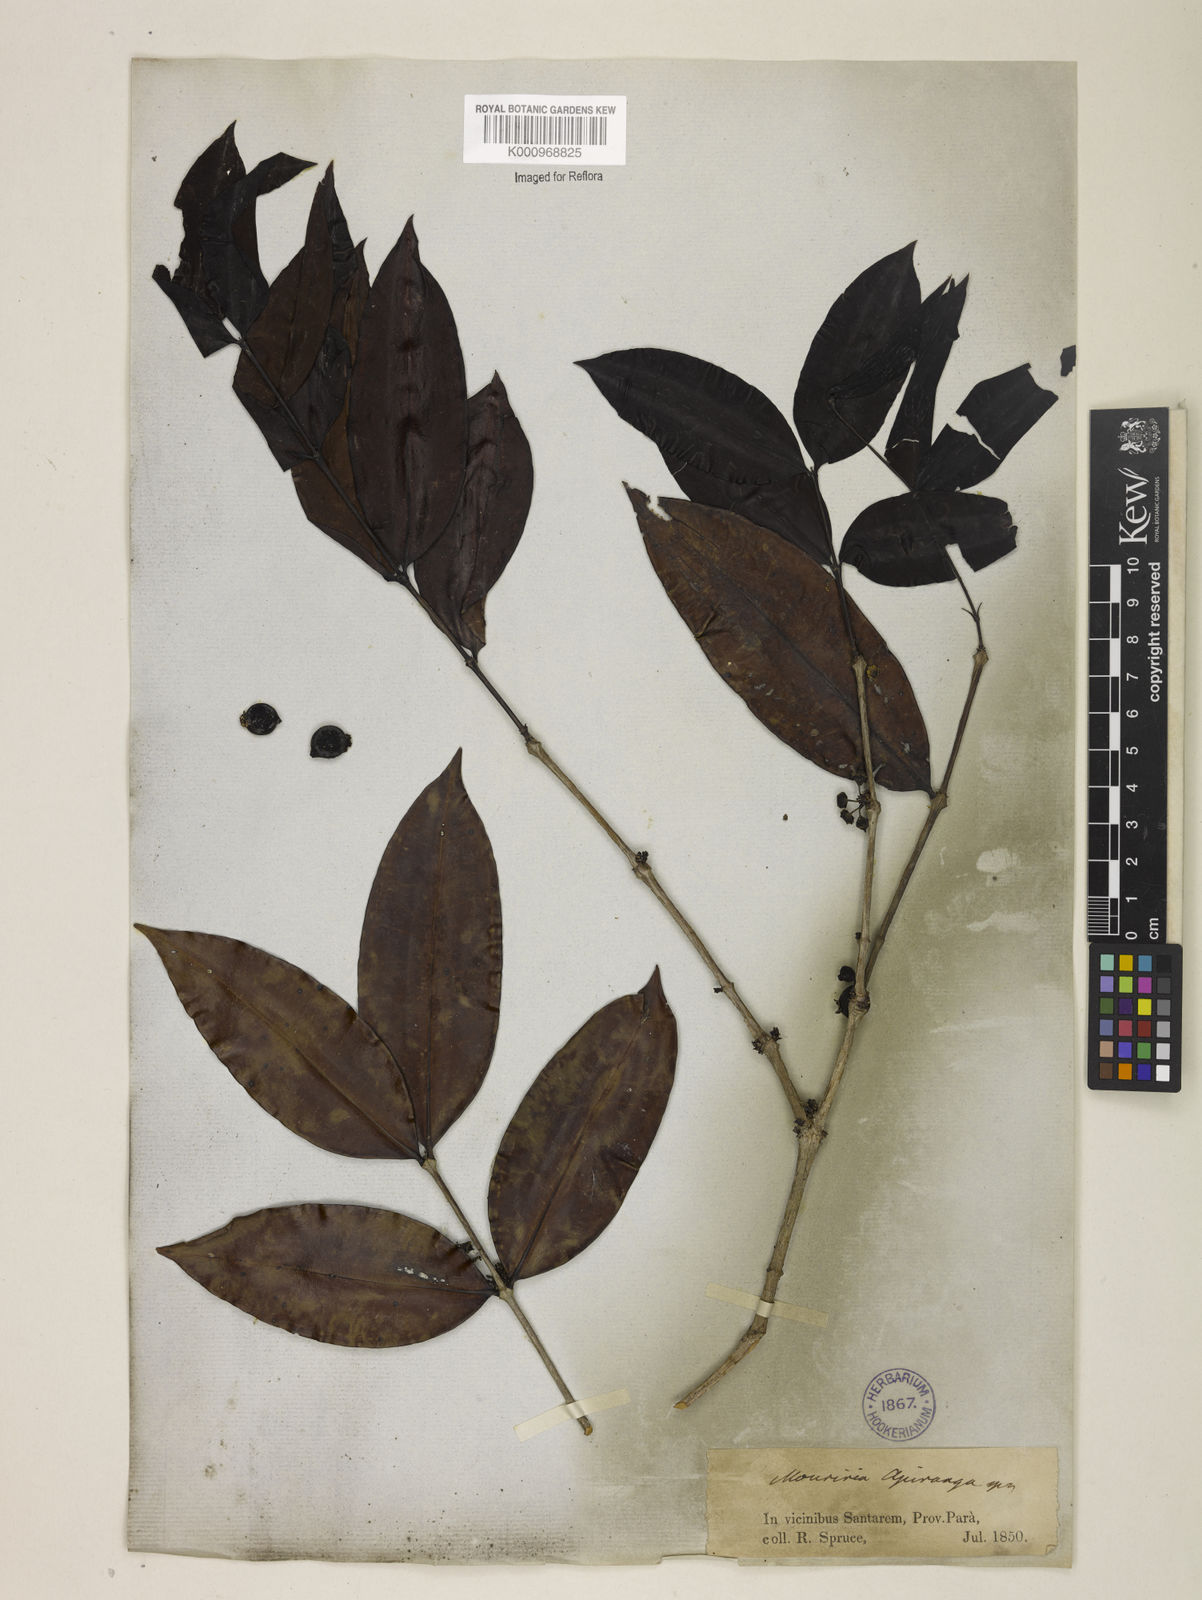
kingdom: Plantae
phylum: Tracheophyta
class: Magnoliopsida
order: Myrtales
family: Melastomataceae
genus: Mouriri
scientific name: Mouriri apiranga
